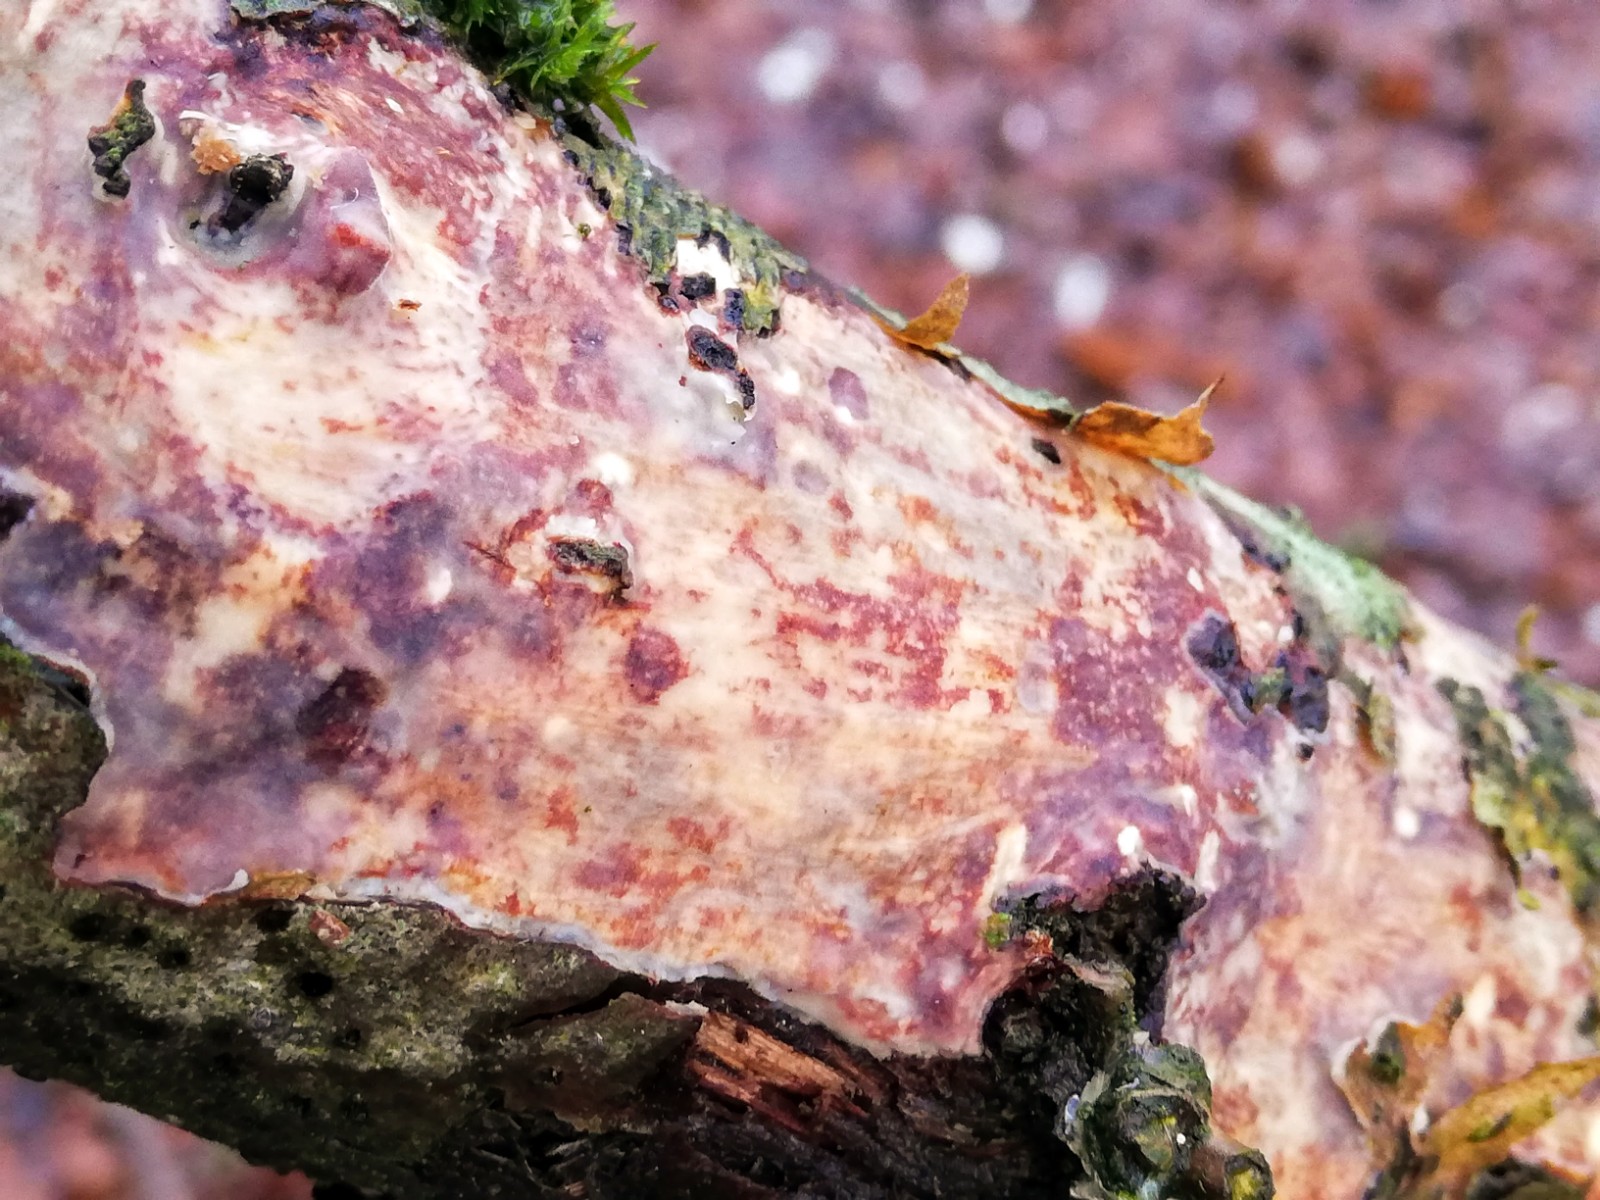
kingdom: Fungi
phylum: Basidiomycota
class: Agaricomycetes
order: Corticiales
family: Vuilleminiaceae
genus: Vuilleminia
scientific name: Vuilleminia comedens
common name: almindelig barksprænger
